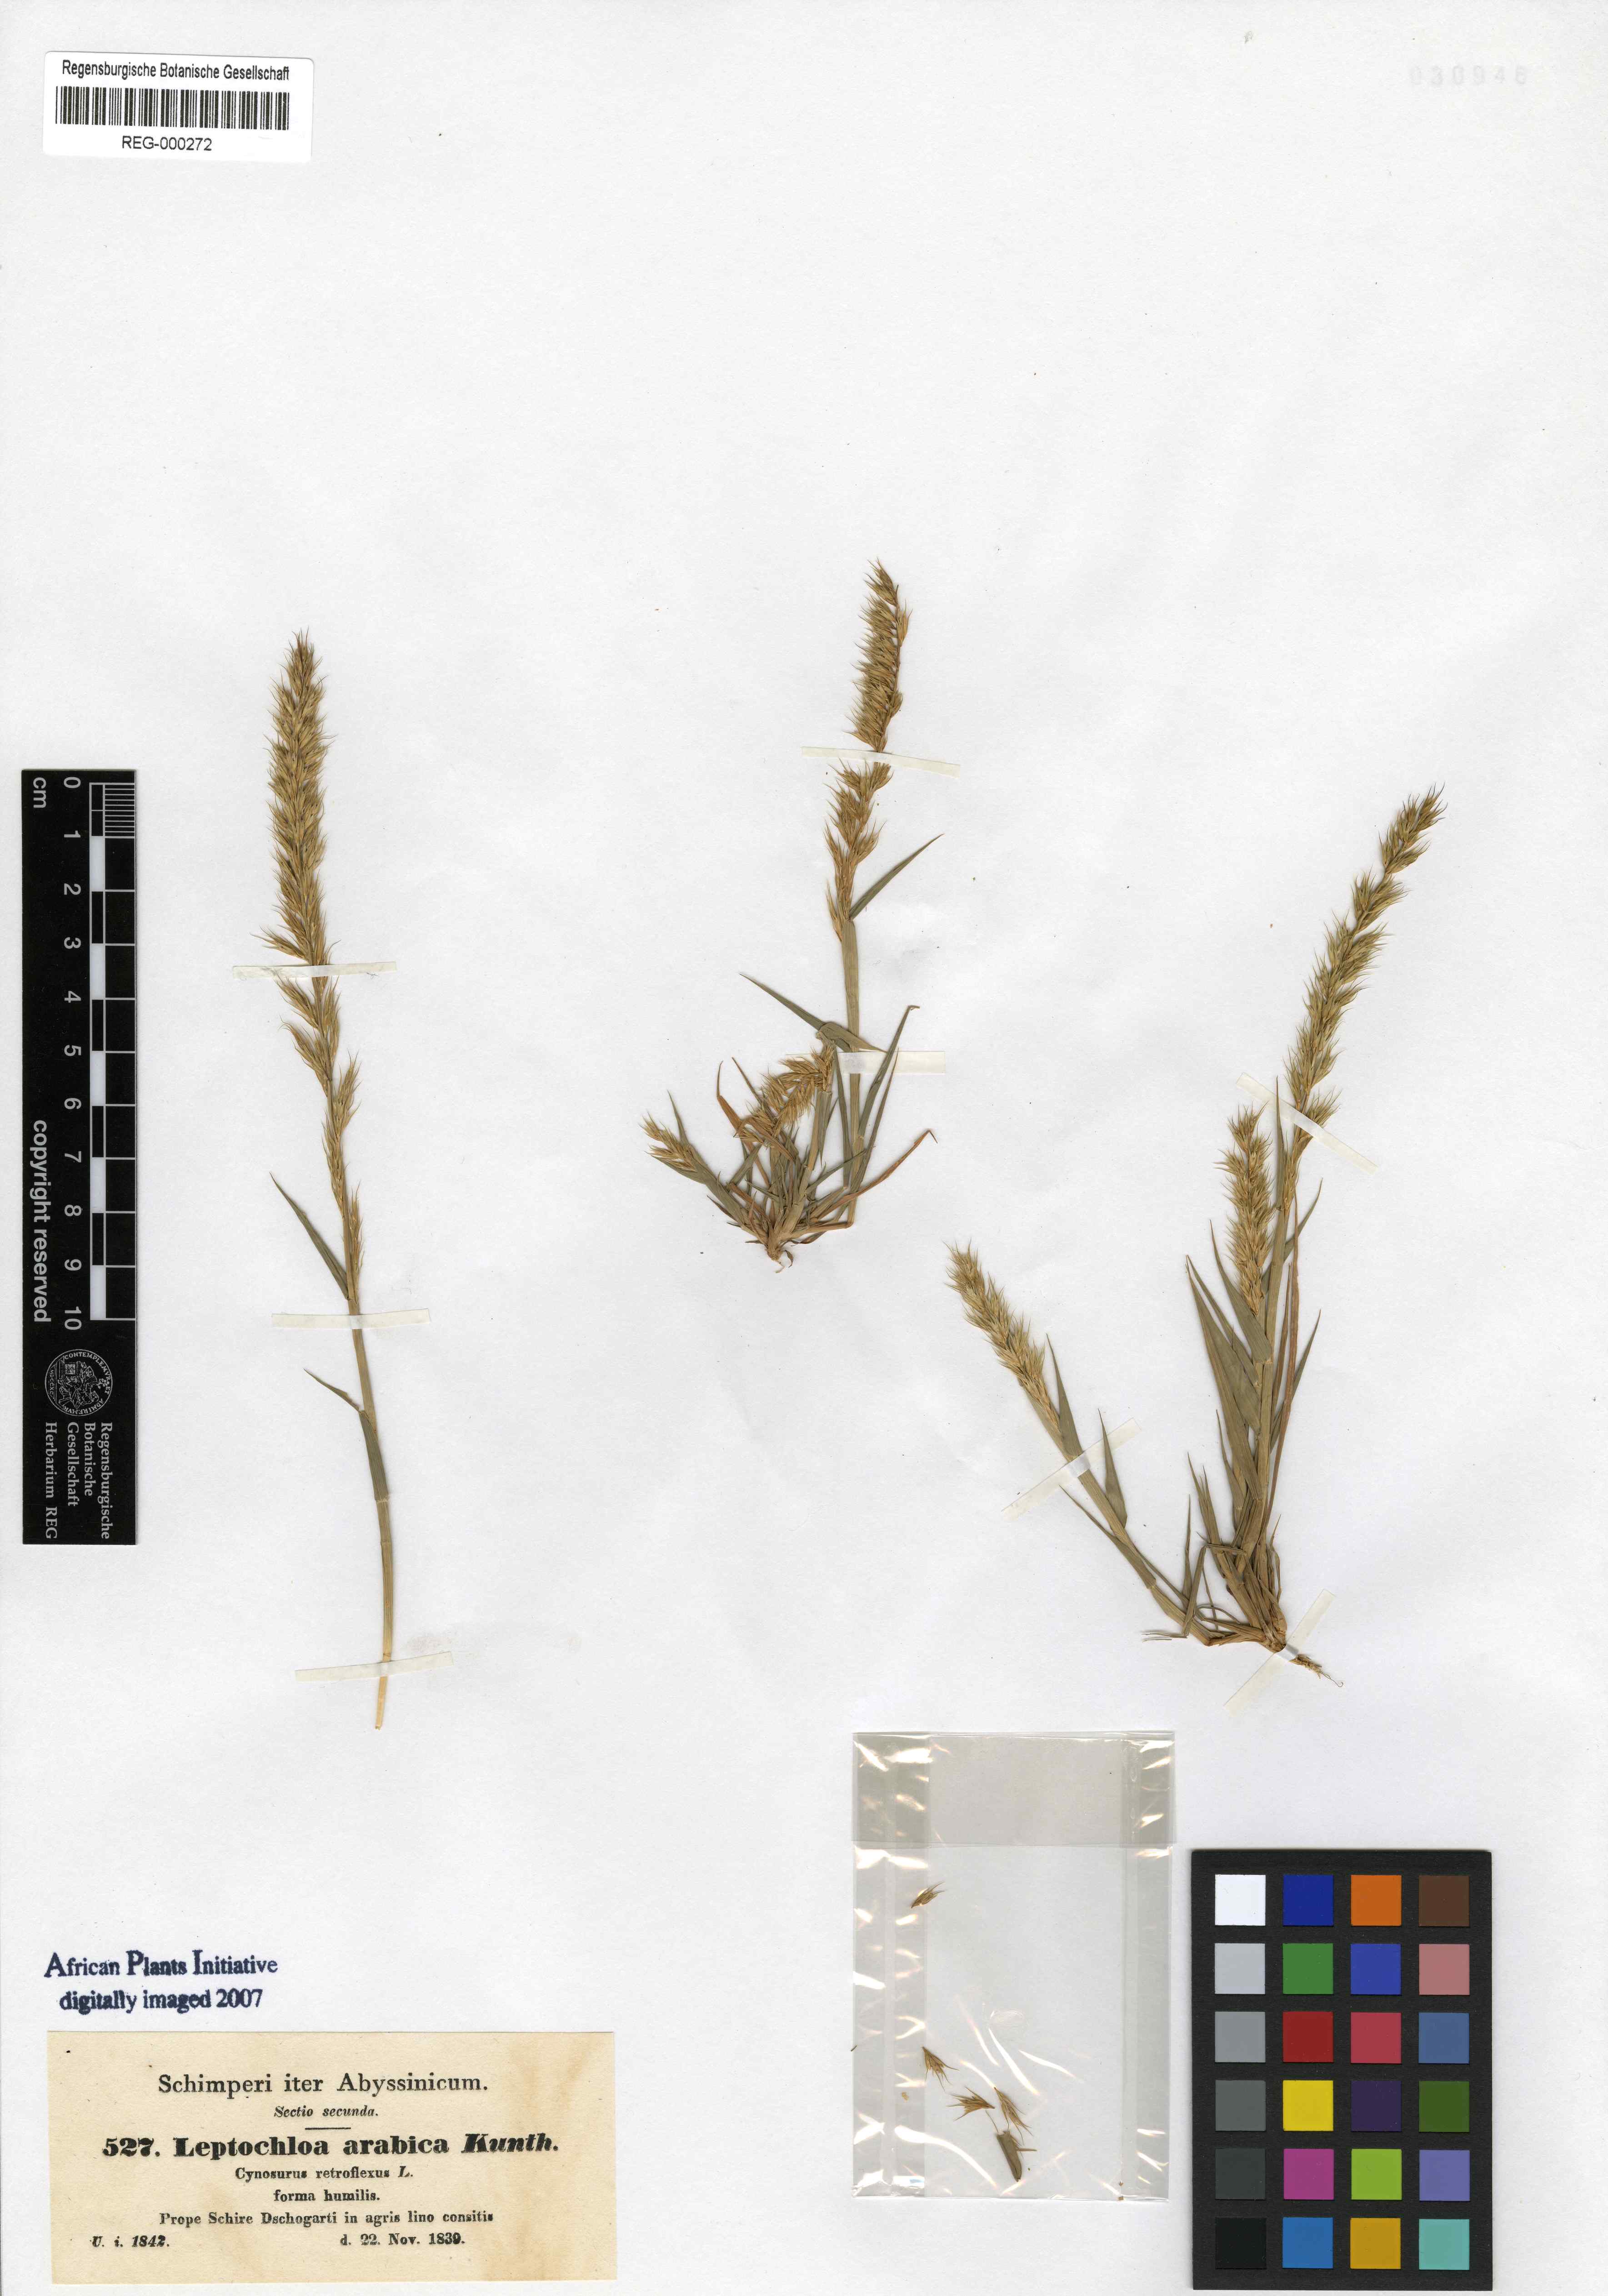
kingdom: Plantae
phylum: Tracheophyta
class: Liliopsida
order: Poales
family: Poaceae
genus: Dinebra
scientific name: Dinebra retroflexa
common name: Viper grass
